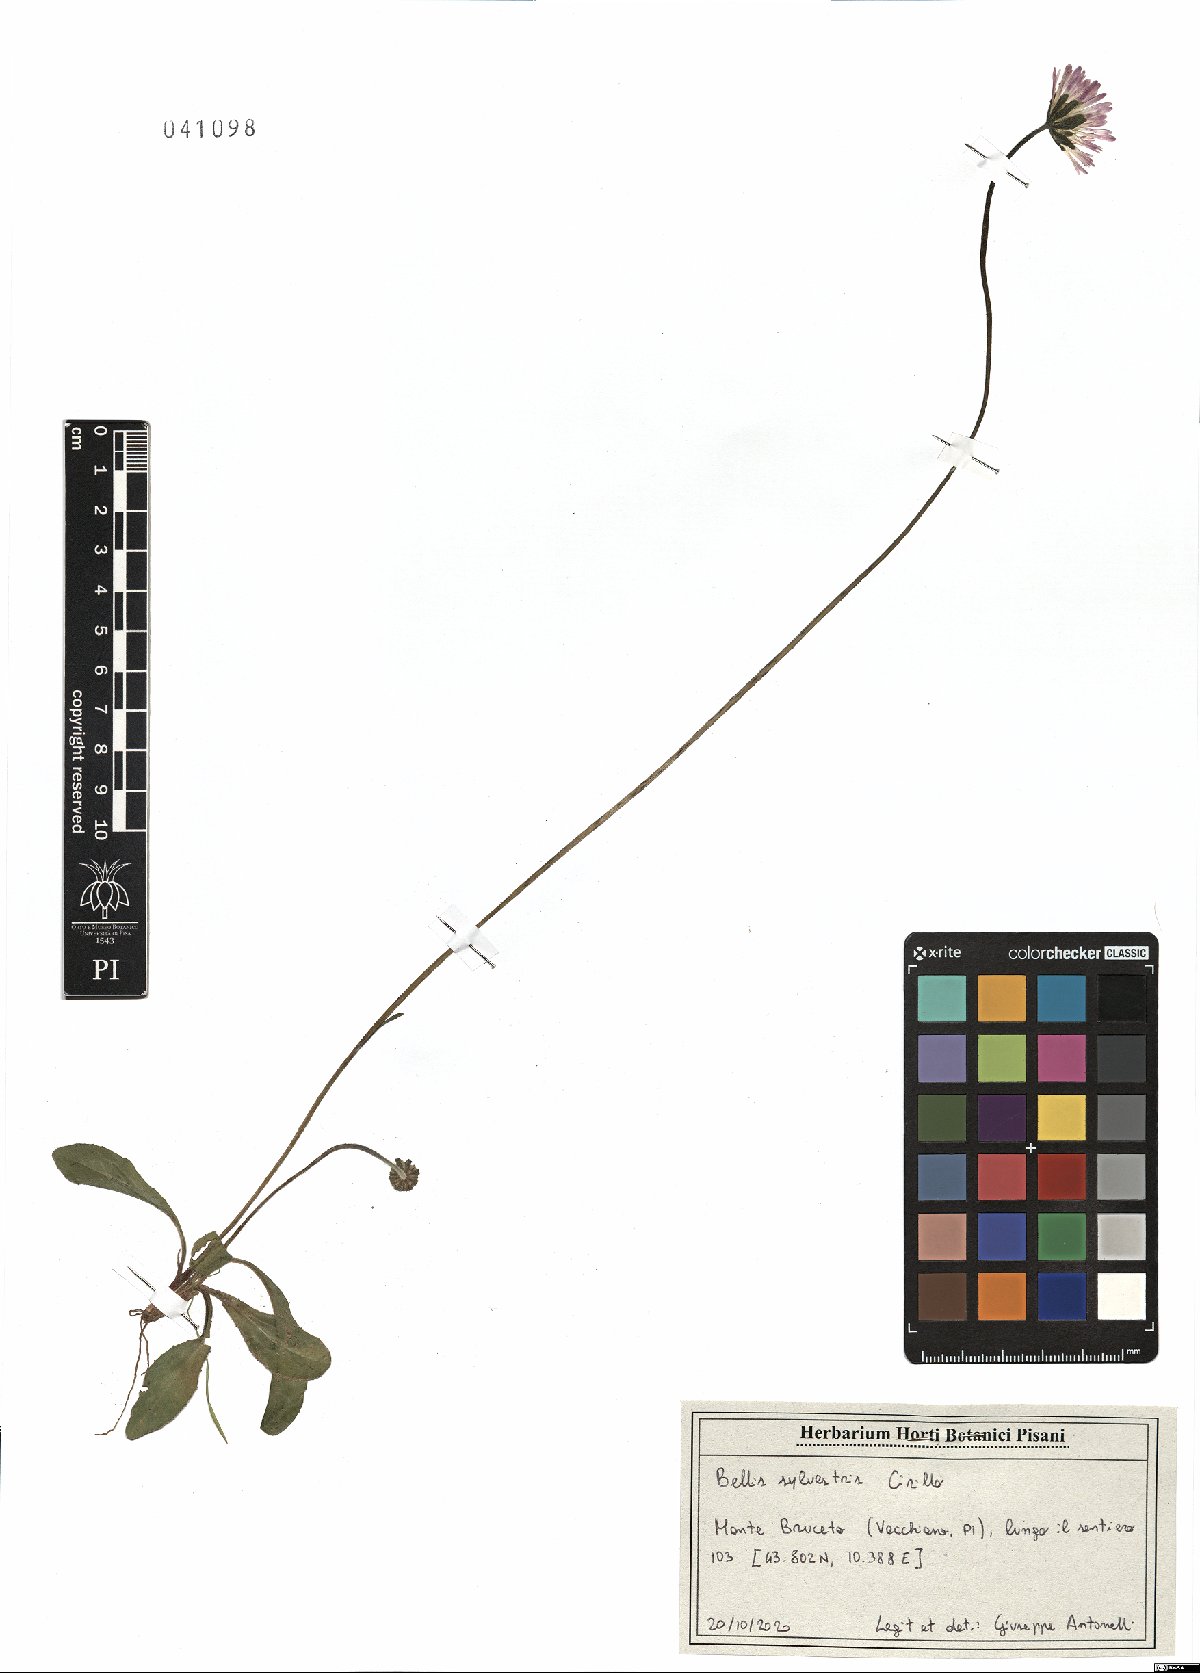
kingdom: Plantae
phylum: Tracheophyta
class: Magnoliopsida
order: Asterales
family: Asteraceae
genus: Bellis
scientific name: Bellis sylvestris
